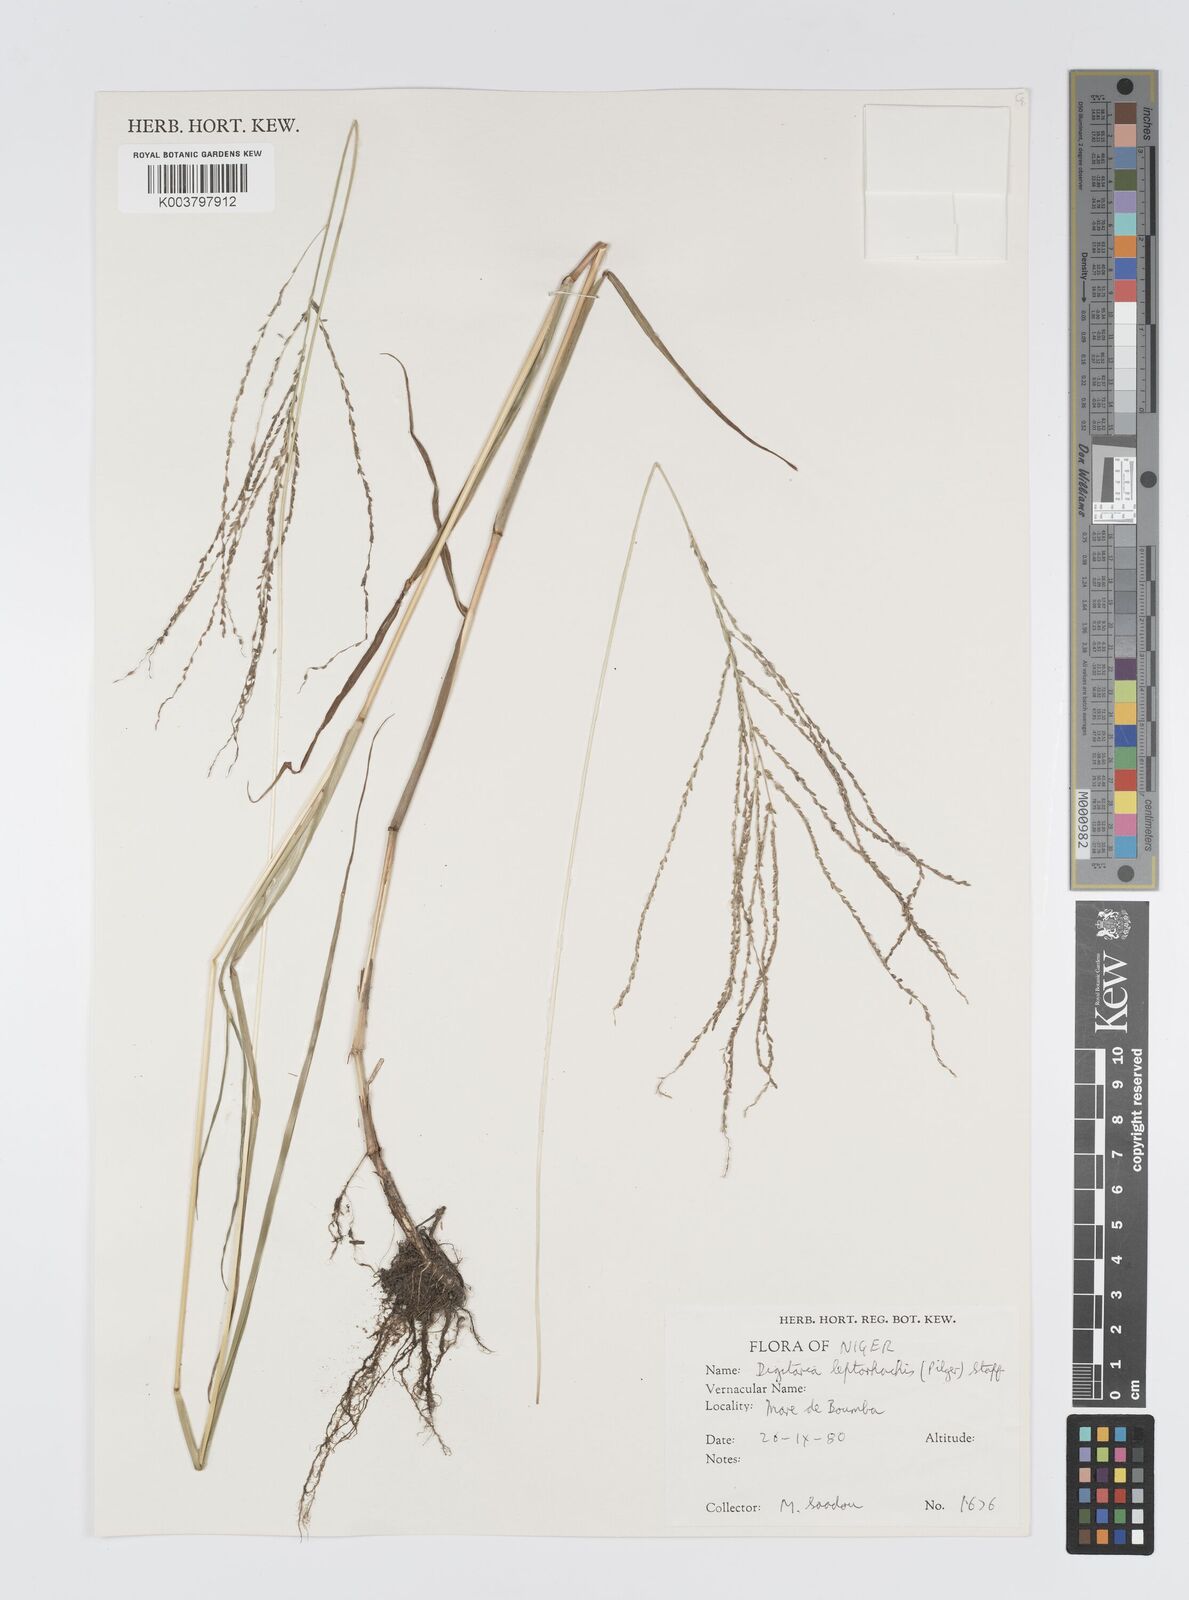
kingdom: Plantae
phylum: Tracheophyta
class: Liliopsida
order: Poales
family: Poaceae
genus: Digitaria
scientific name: Digitaria leptorhachis
